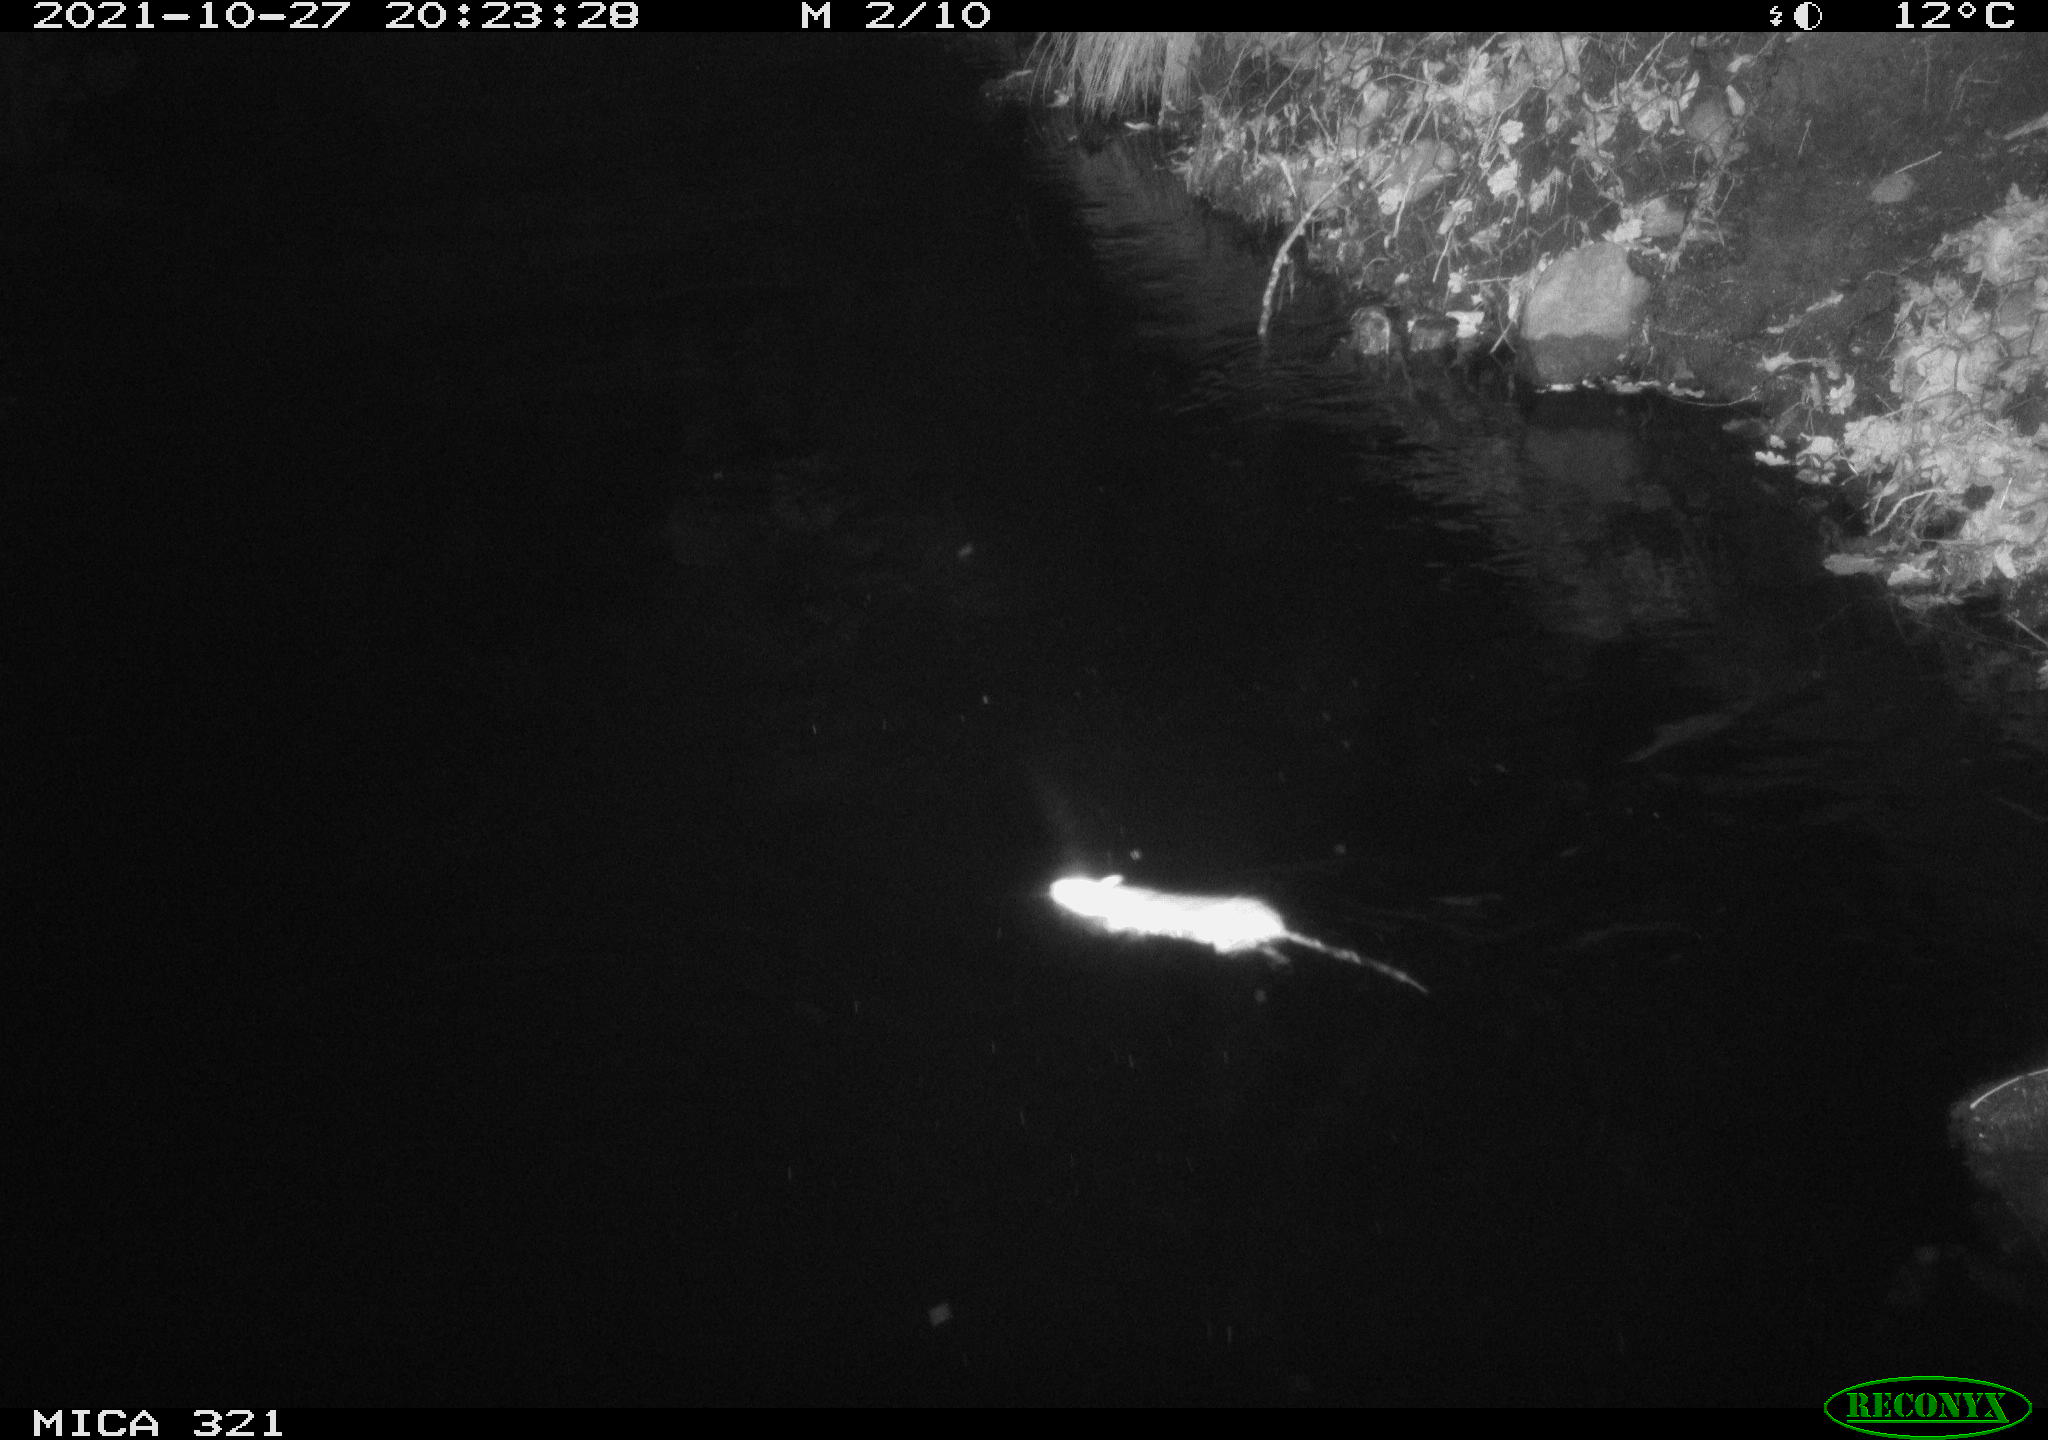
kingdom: Animalia
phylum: Chordata
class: Mammalia
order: Rodentia
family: Muridae
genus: Rattus
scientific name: Rattus norvegicus
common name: Brown rat
